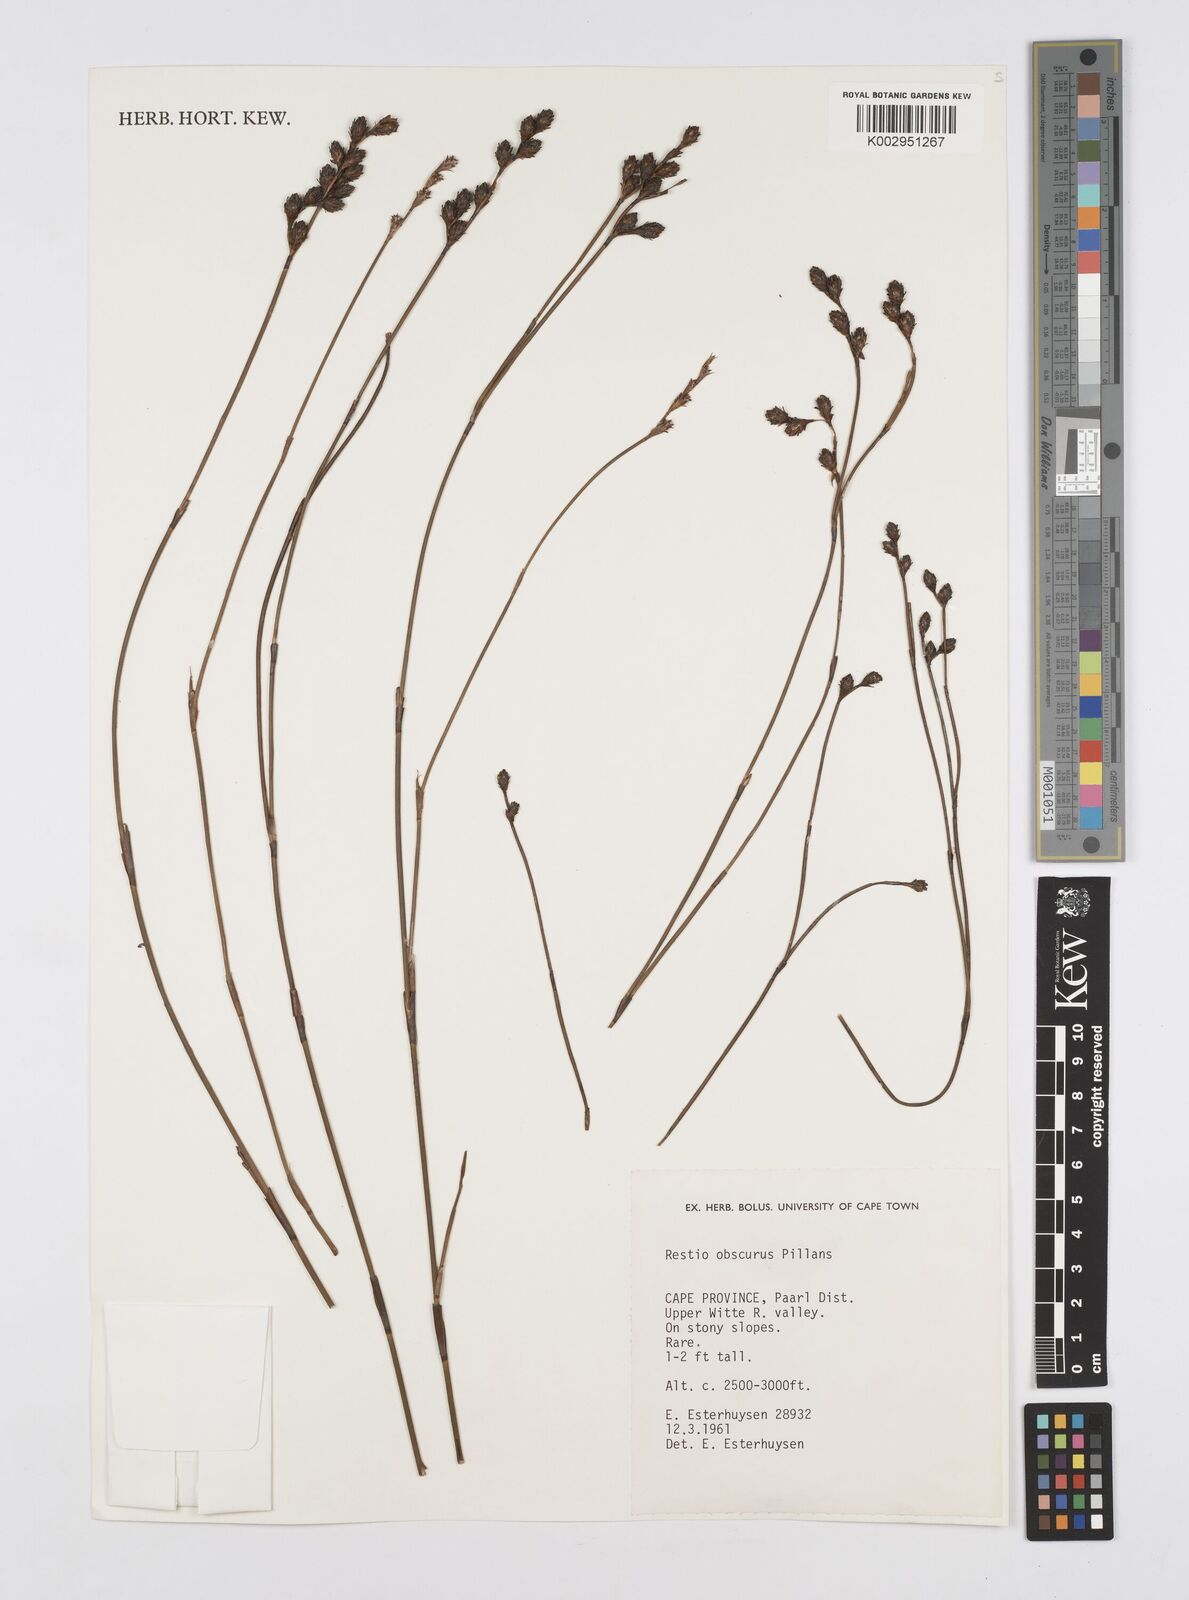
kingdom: Plantae
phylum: Tracheophyta
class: Liliopsida
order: Poales
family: Restionaceae
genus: Restio
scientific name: Restio obscurus
